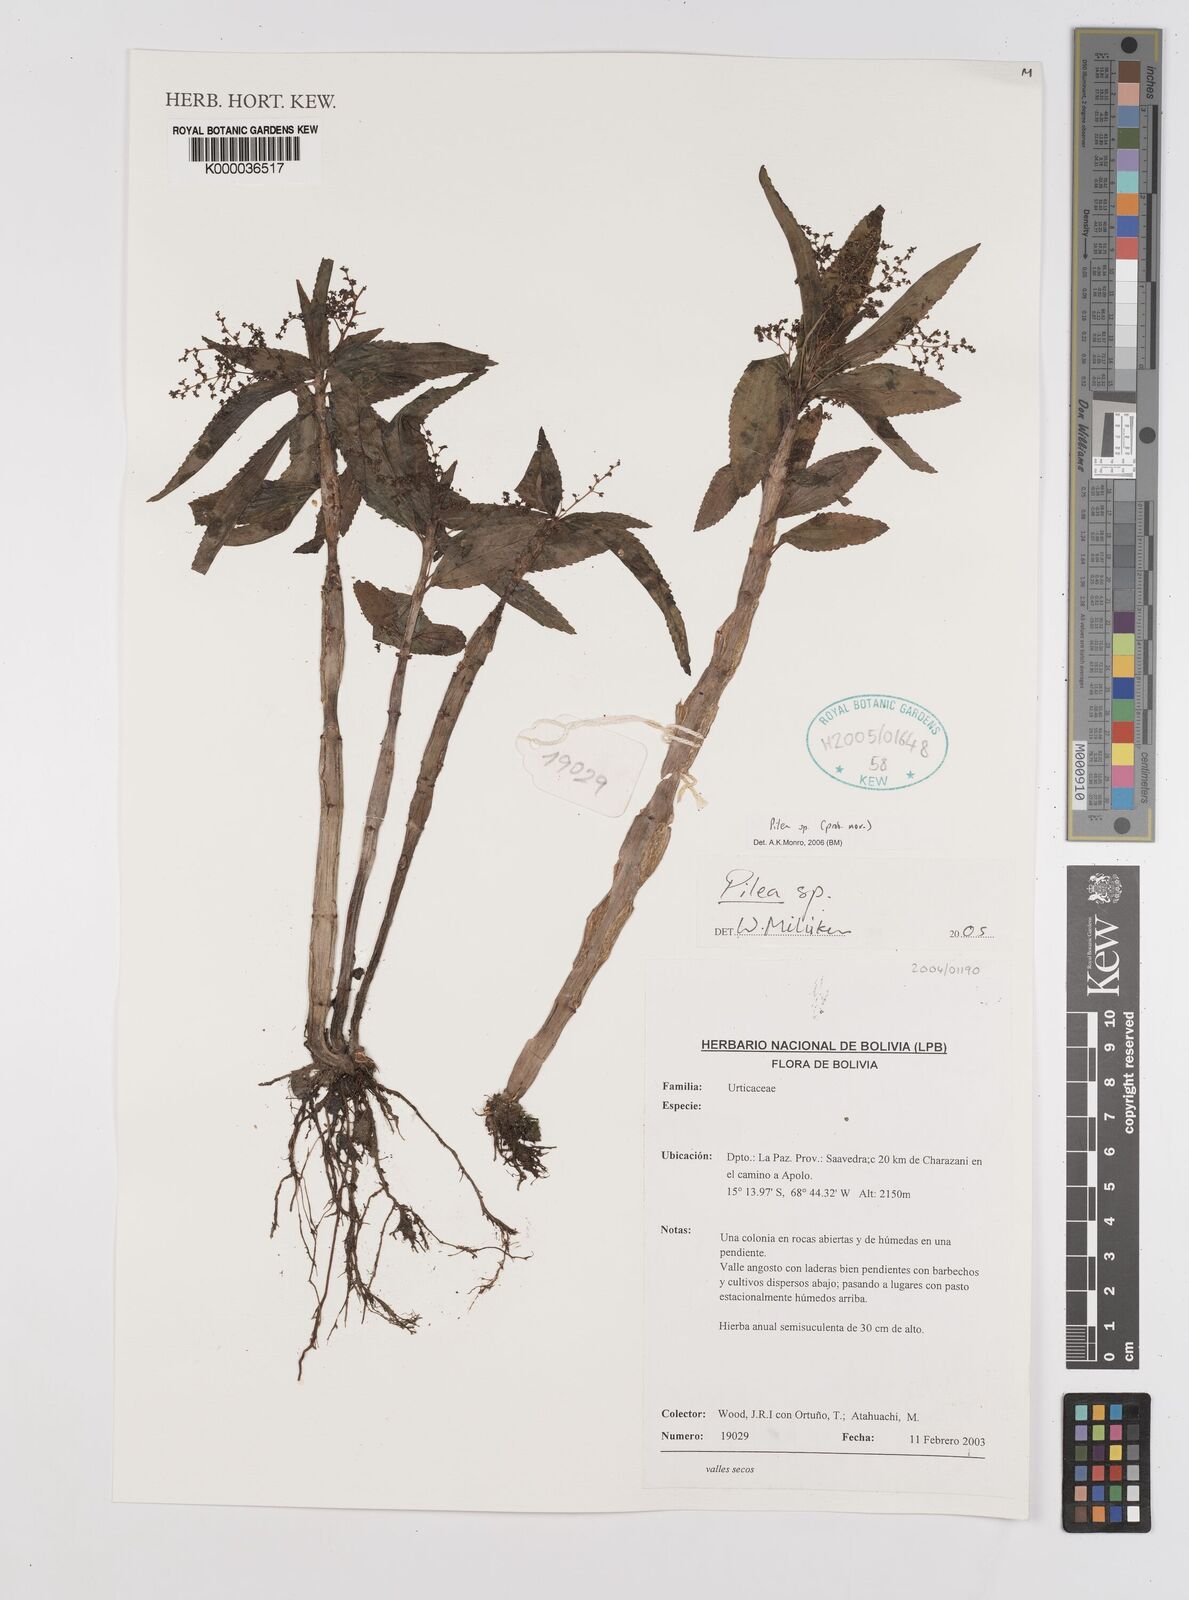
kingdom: Plantae
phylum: Tracheophyta
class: Magnoliopsida
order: Rosales
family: Urticaceae
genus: Pilea
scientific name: Pilea
